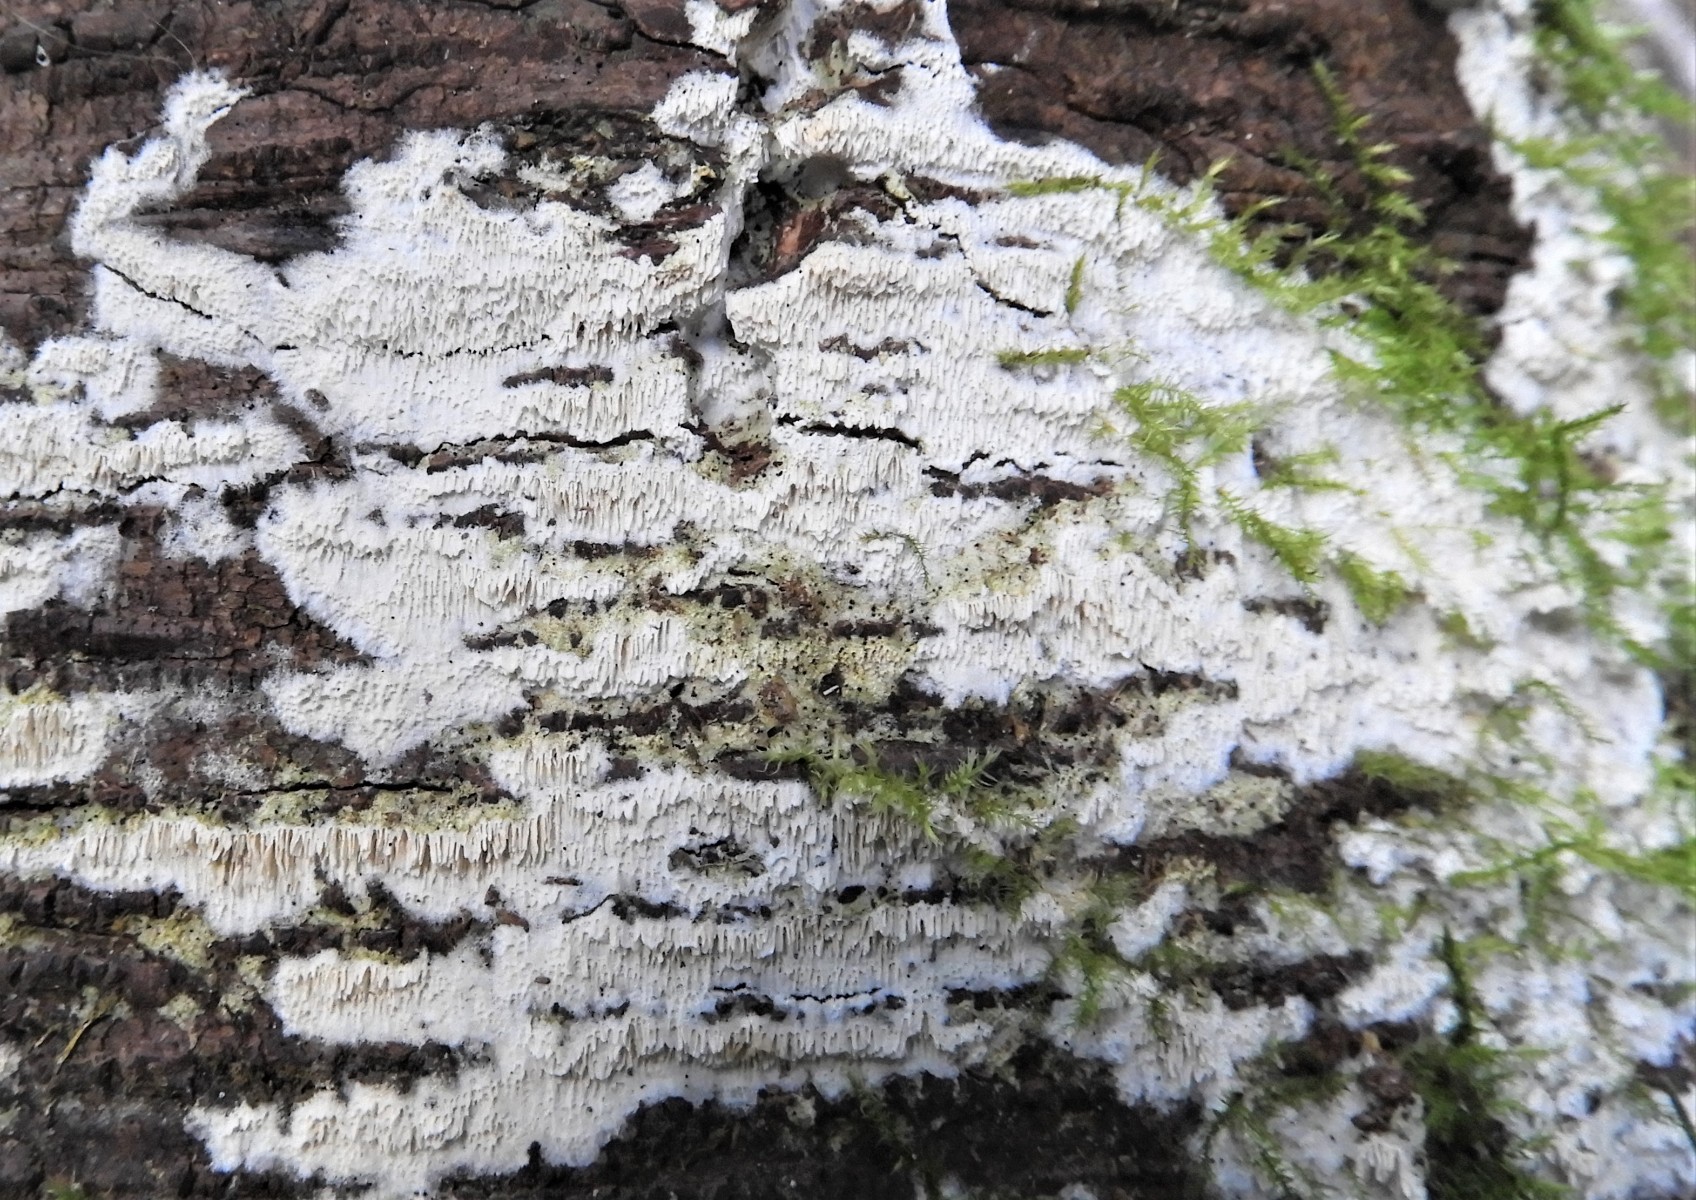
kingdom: Fungi
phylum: Basidiomycota
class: Agaricomycetes
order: Hymenochaetales
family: Schizoporaceae
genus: Schizopora
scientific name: Schizopora paradoxa
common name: hvid tandsvamp
